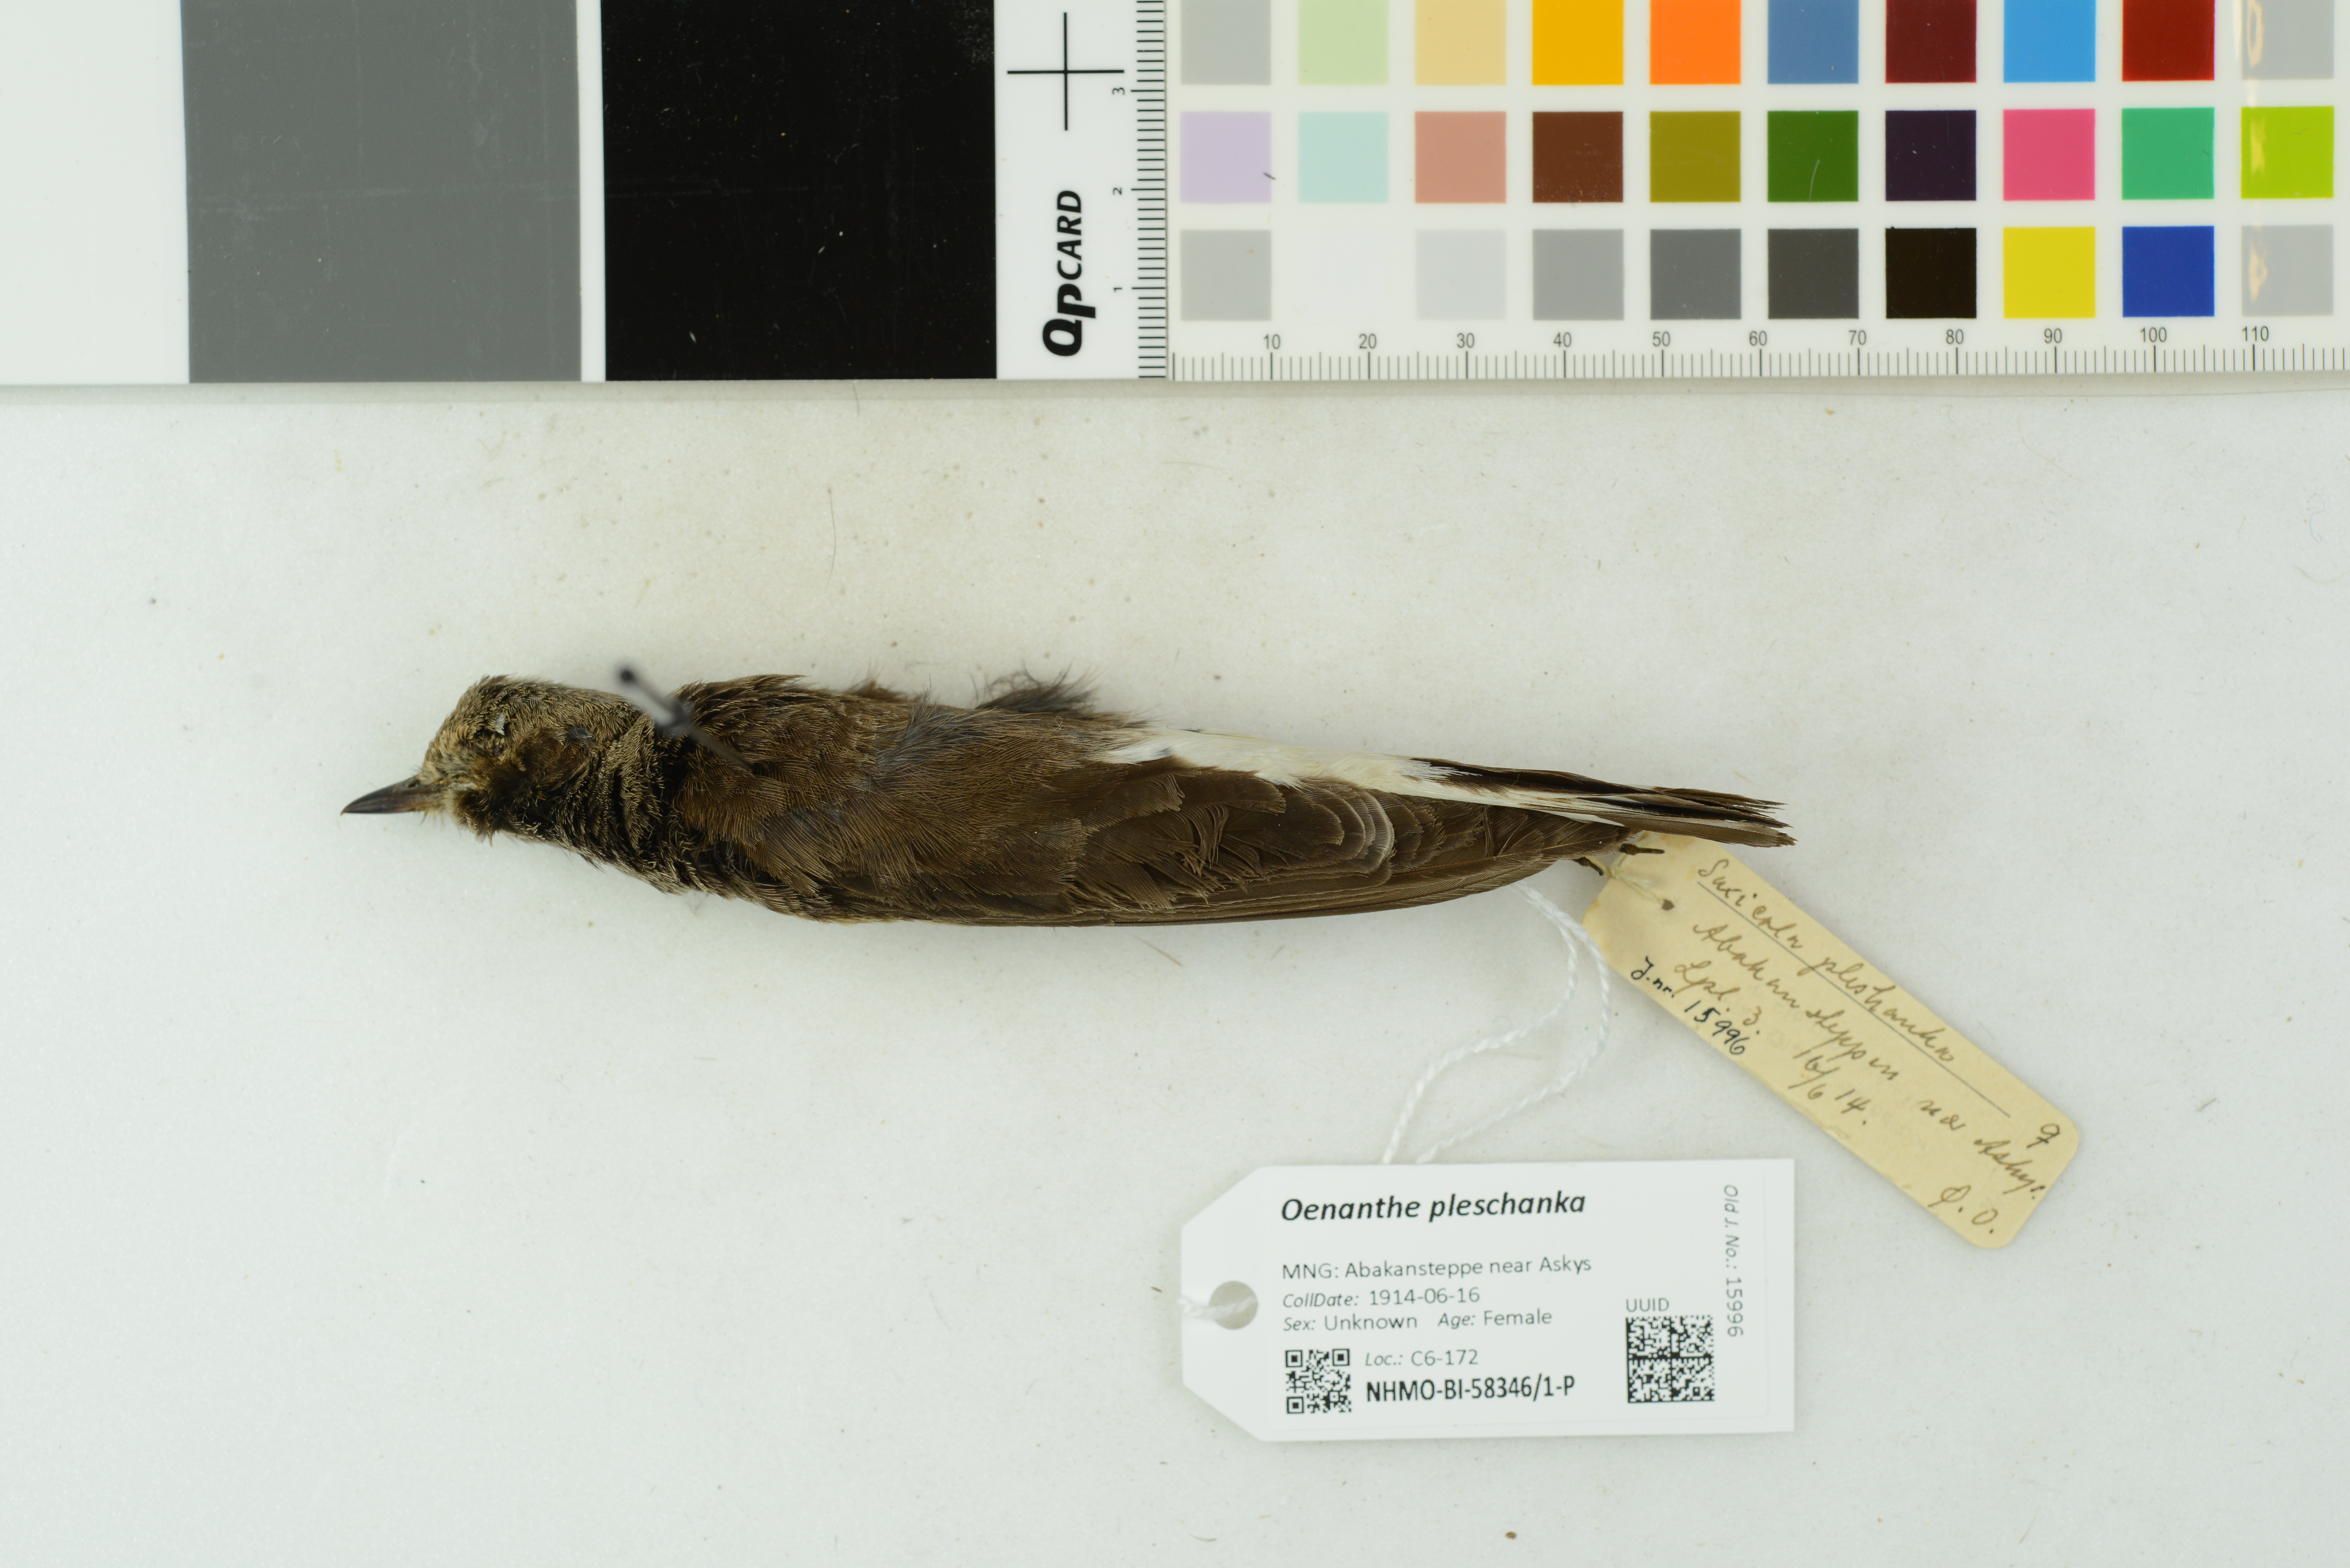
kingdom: Animalia
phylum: Chordata
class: Aves
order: Passeriformes
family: Muscicapidae
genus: Oenanthe
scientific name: Oenanthe pleschanka
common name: Pied wheatear
